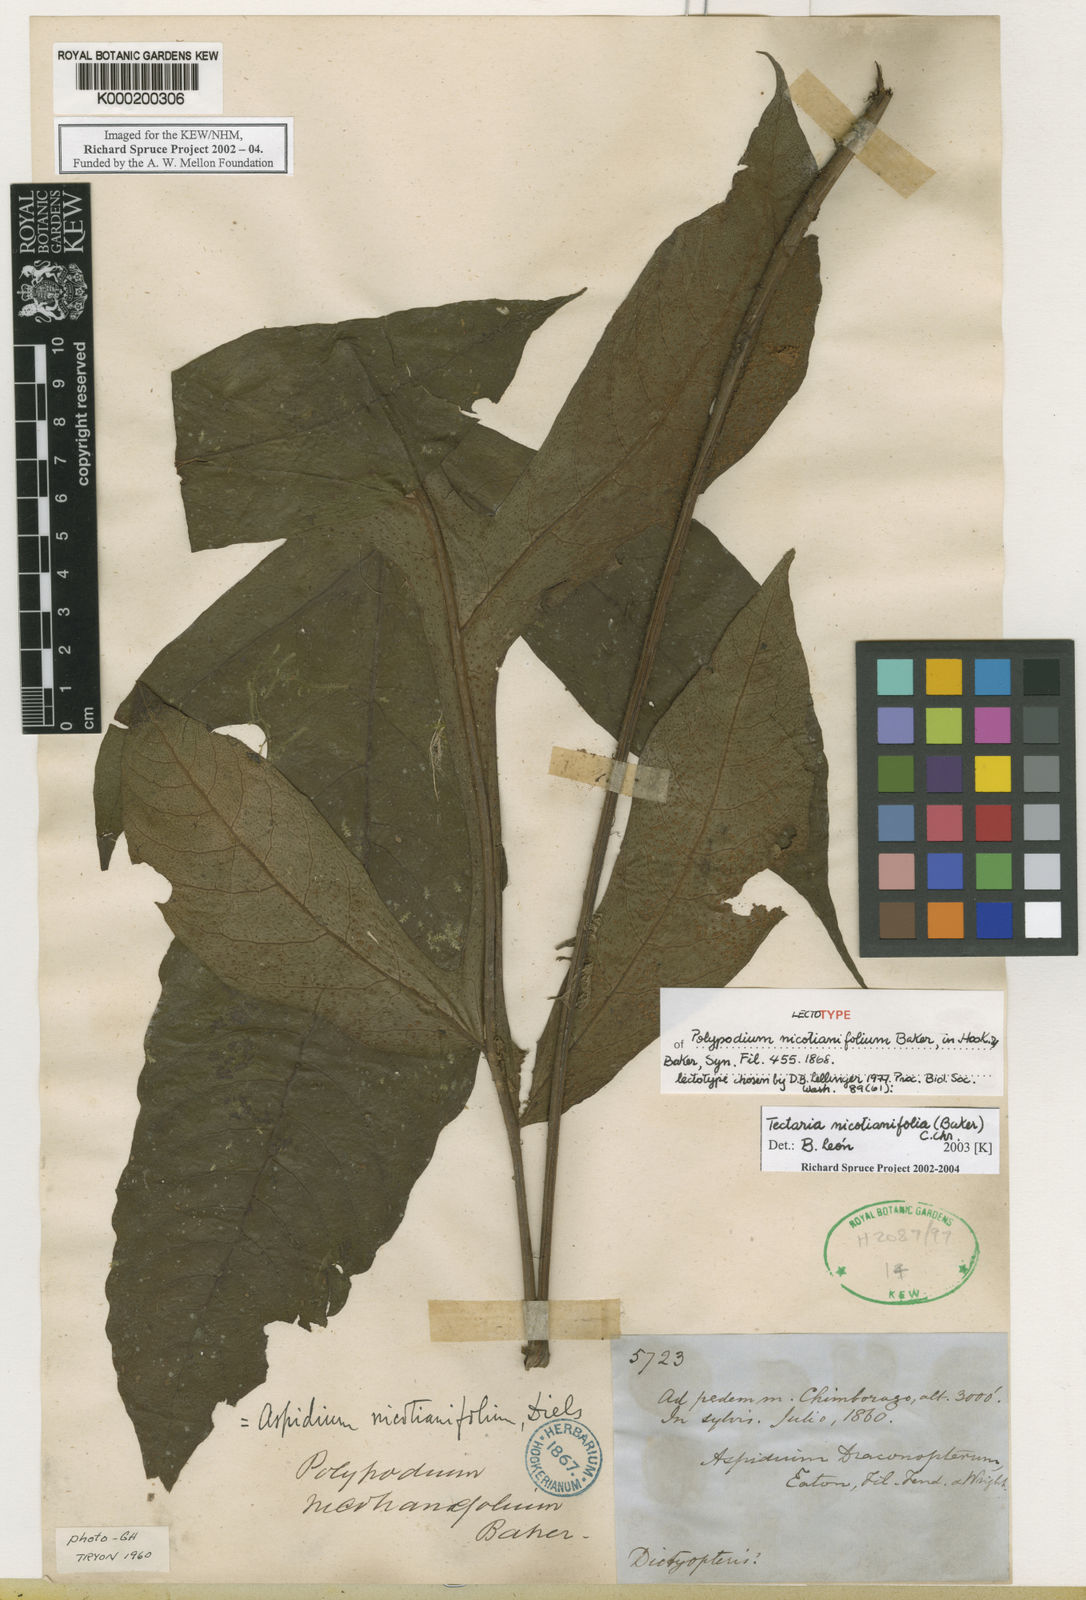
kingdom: Plantae
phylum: Tracheophyta
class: Polypodiopsida
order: Polypodiales
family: Tectariaceae
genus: Hypoderris
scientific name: Hypoderris nicotianifolia
